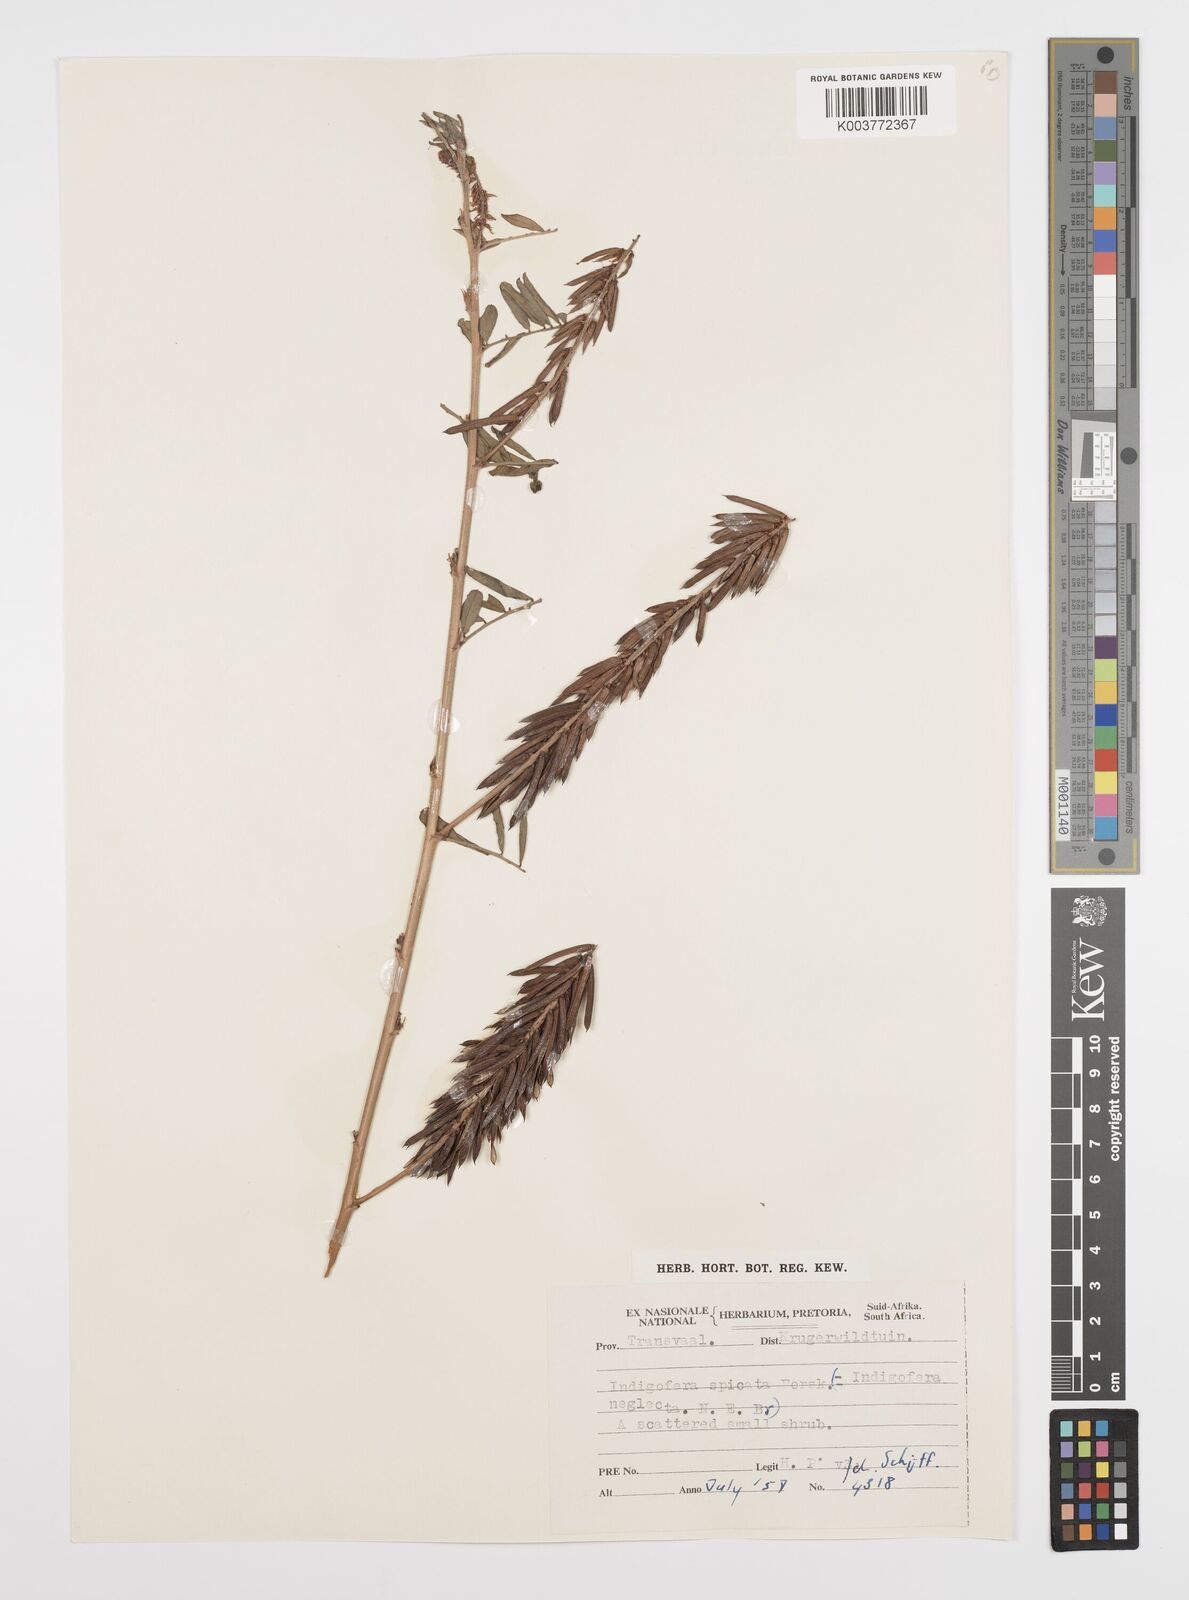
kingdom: Plantae
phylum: Tracheophyta
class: Magnoliopsida
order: Fabales
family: Fabaceae
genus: Indigofera
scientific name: Indigofera hendecaphylla
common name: Trailing indigo
